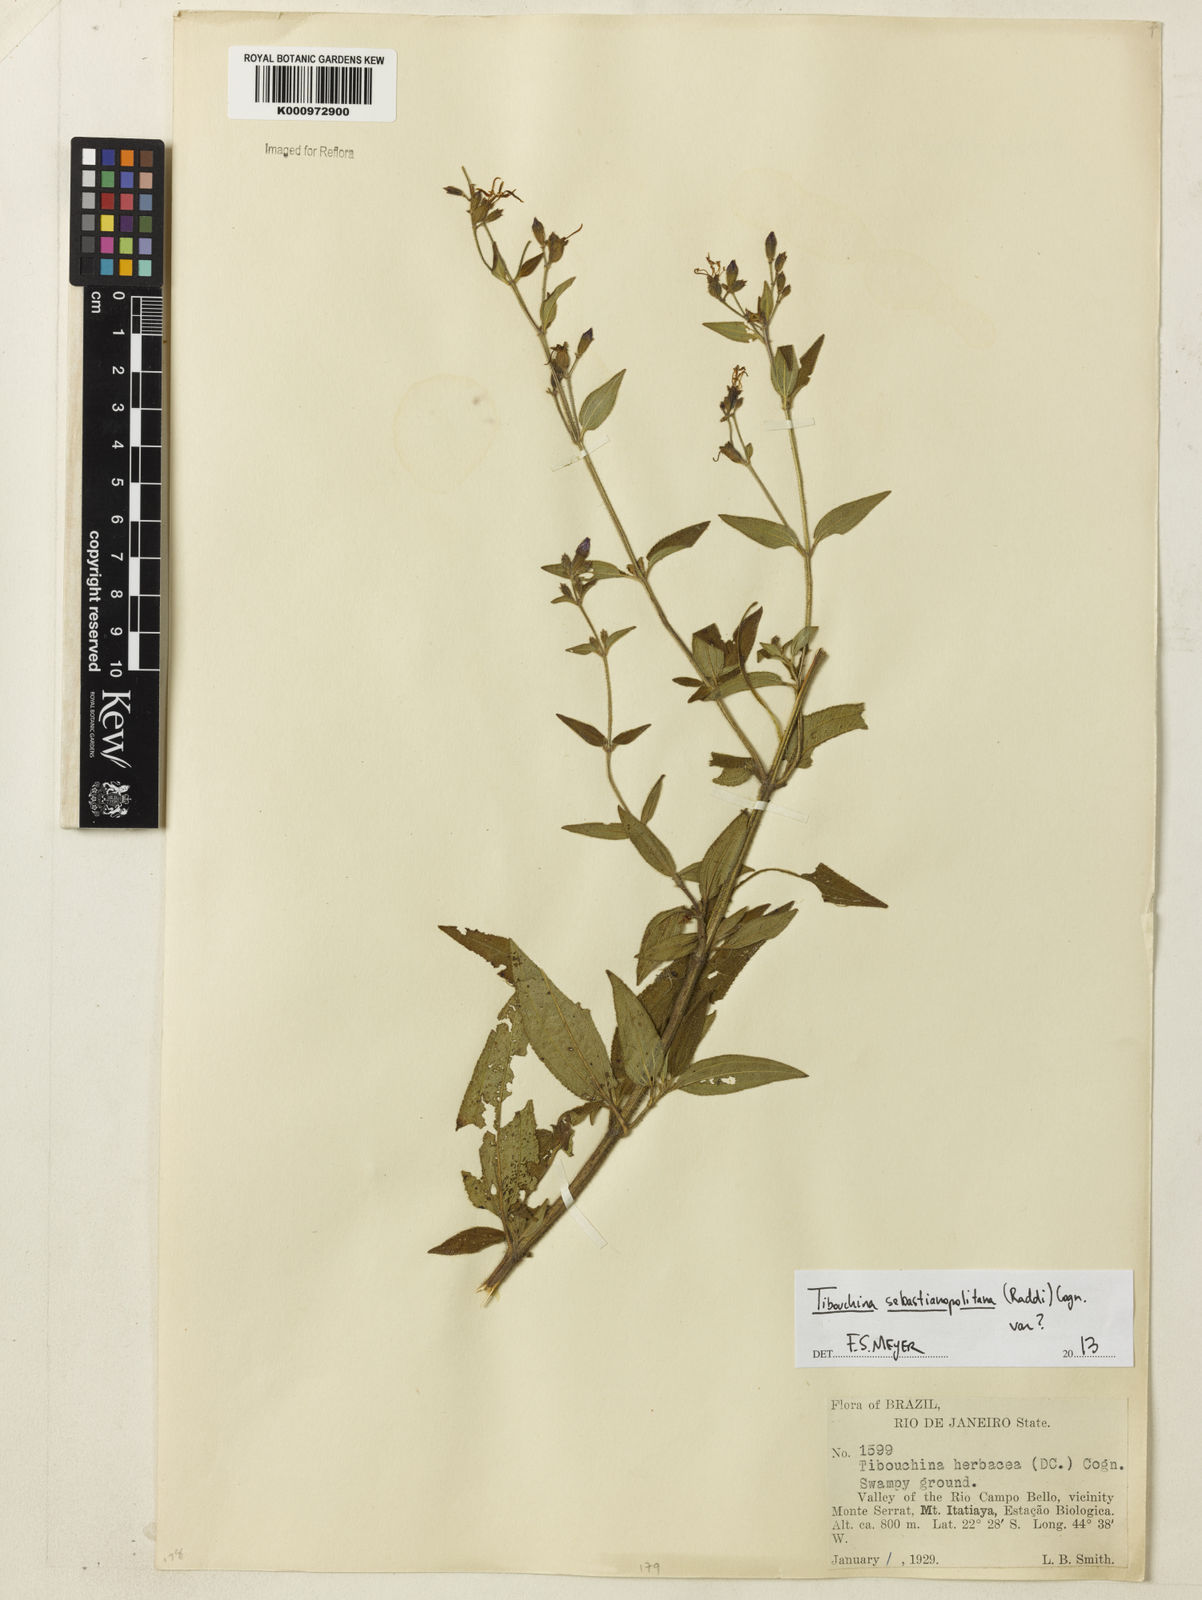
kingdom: Plantae
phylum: Tracheophyta
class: Magnoliopsida
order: Myrtales
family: Melastomataceae
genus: Chaetogastra
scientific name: Chaetogastra sebastianopolitana
